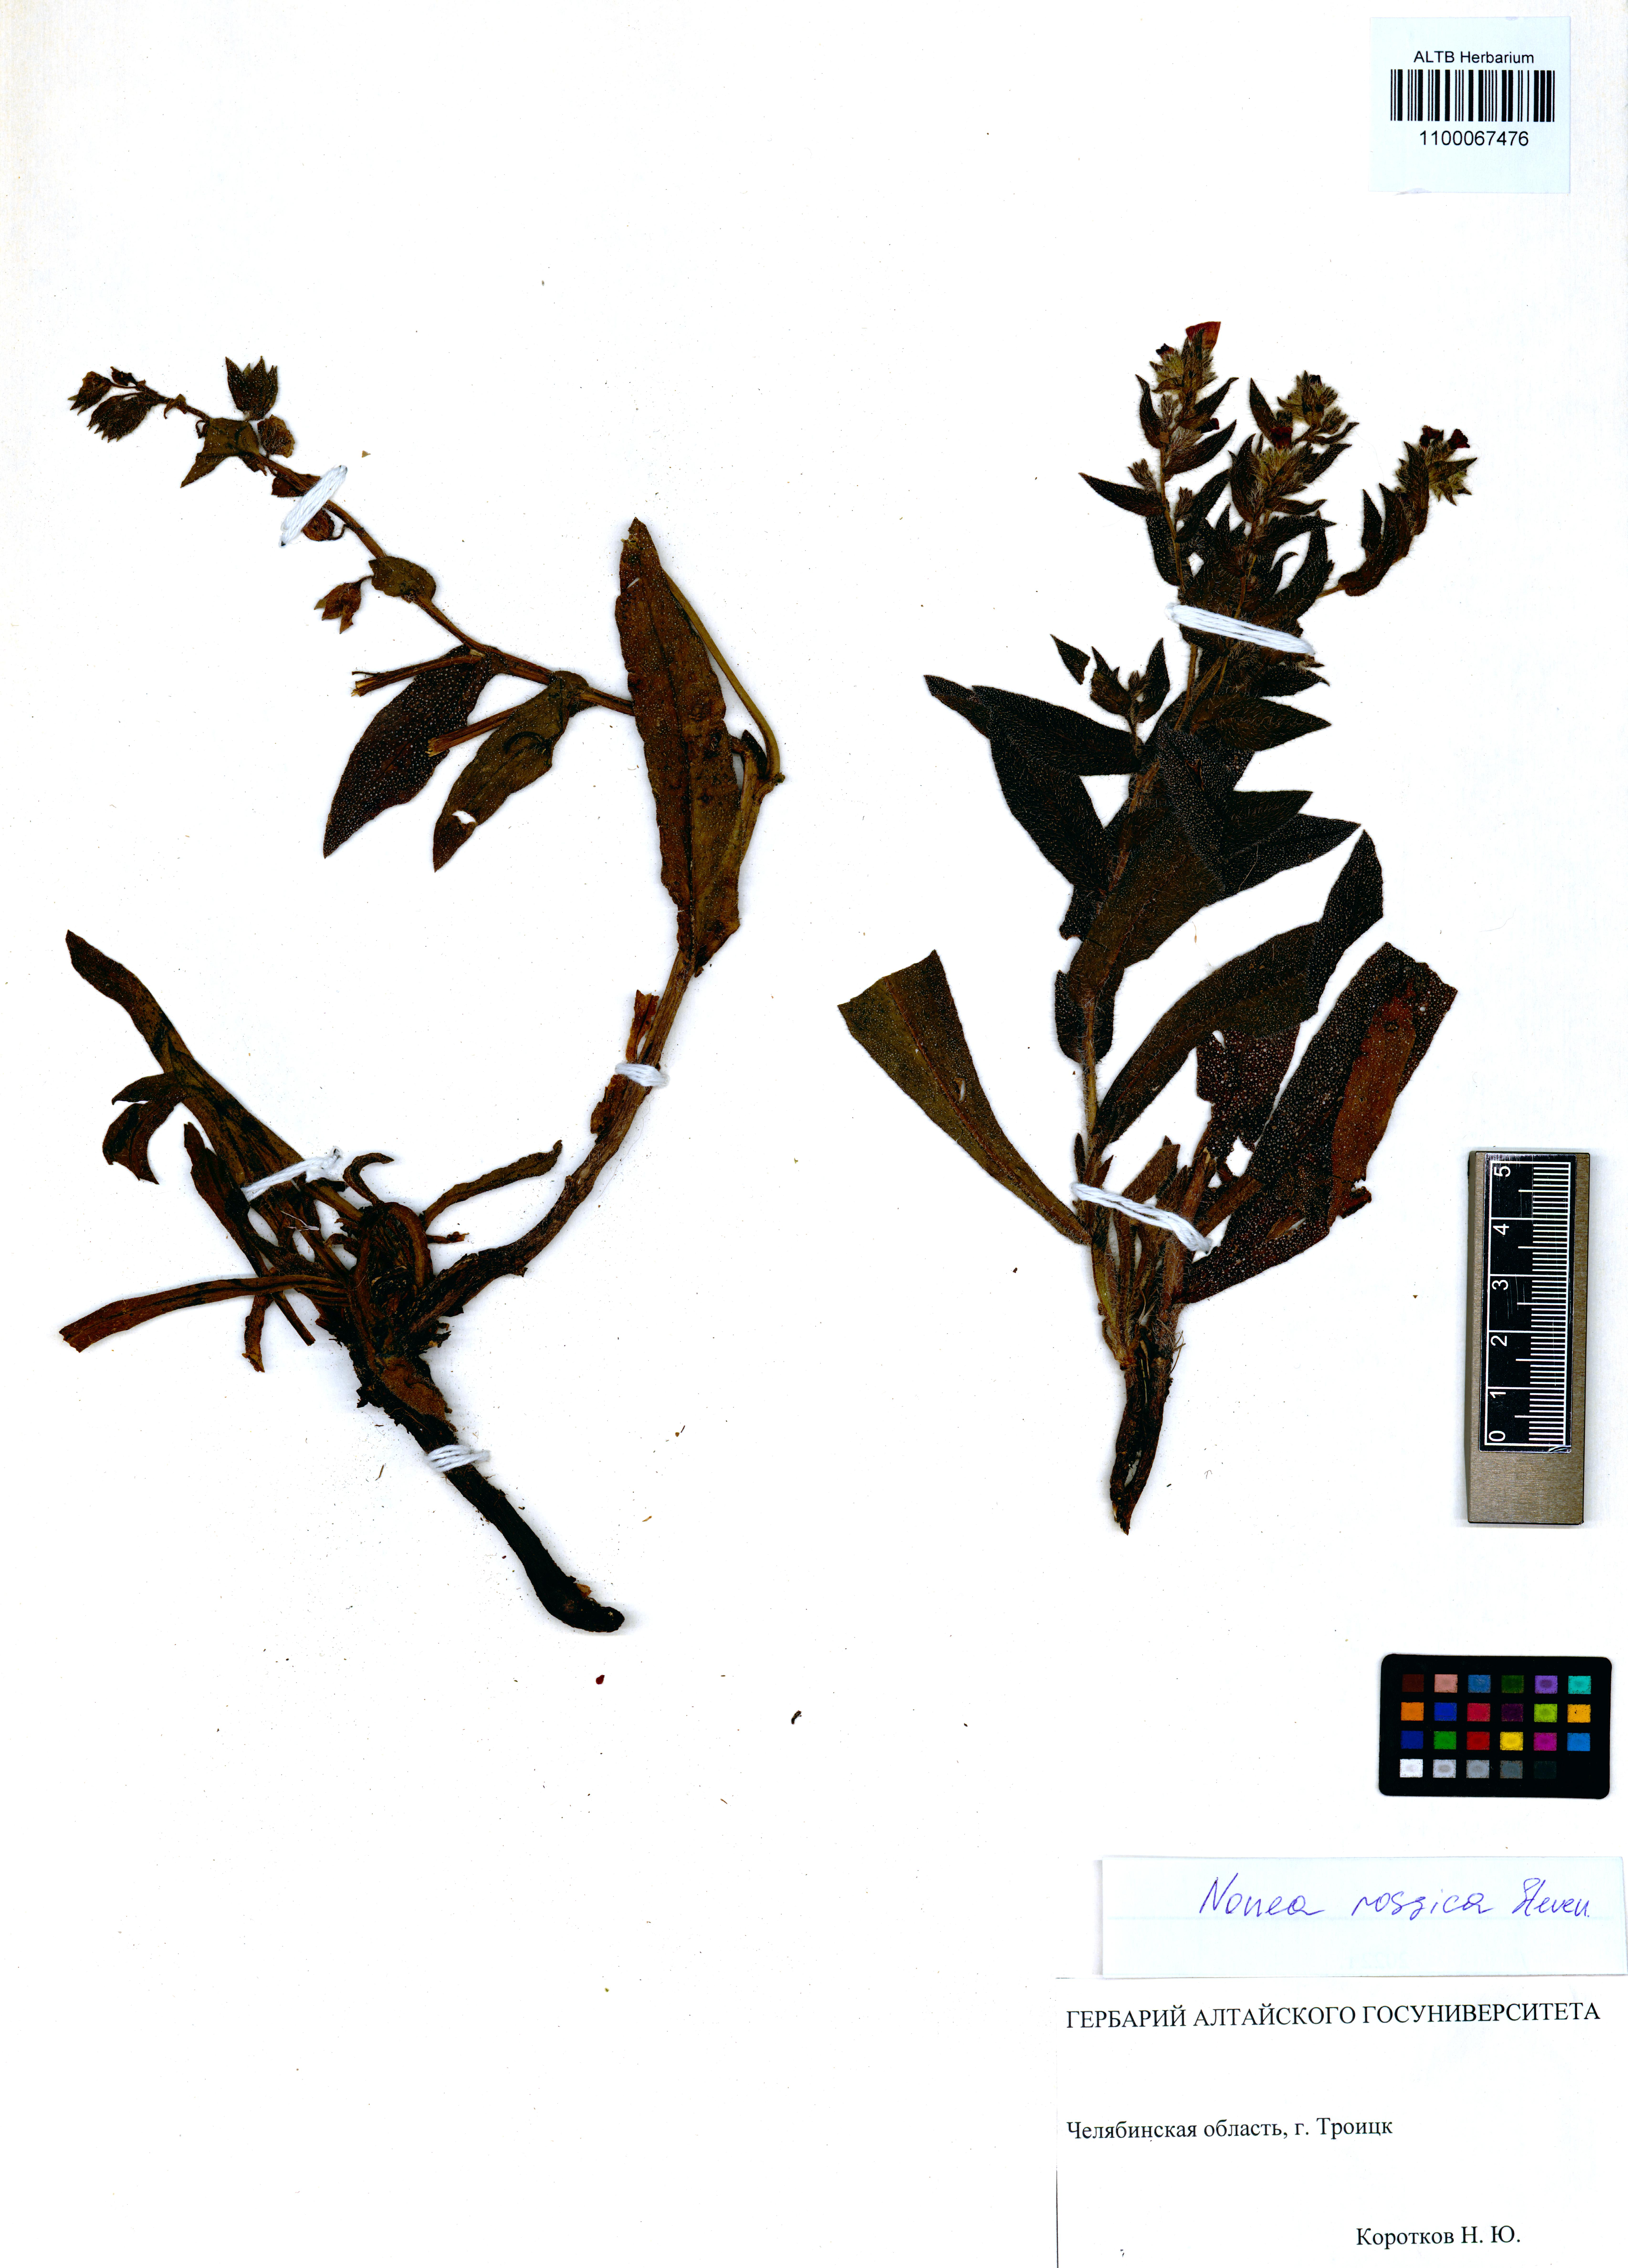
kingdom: Plantae
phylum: Tracheophyta
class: Magnoliopsida
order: Boraginales
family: Boraginaceae
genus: Nonea
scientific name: Nonea pulla
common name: Brown nonea
